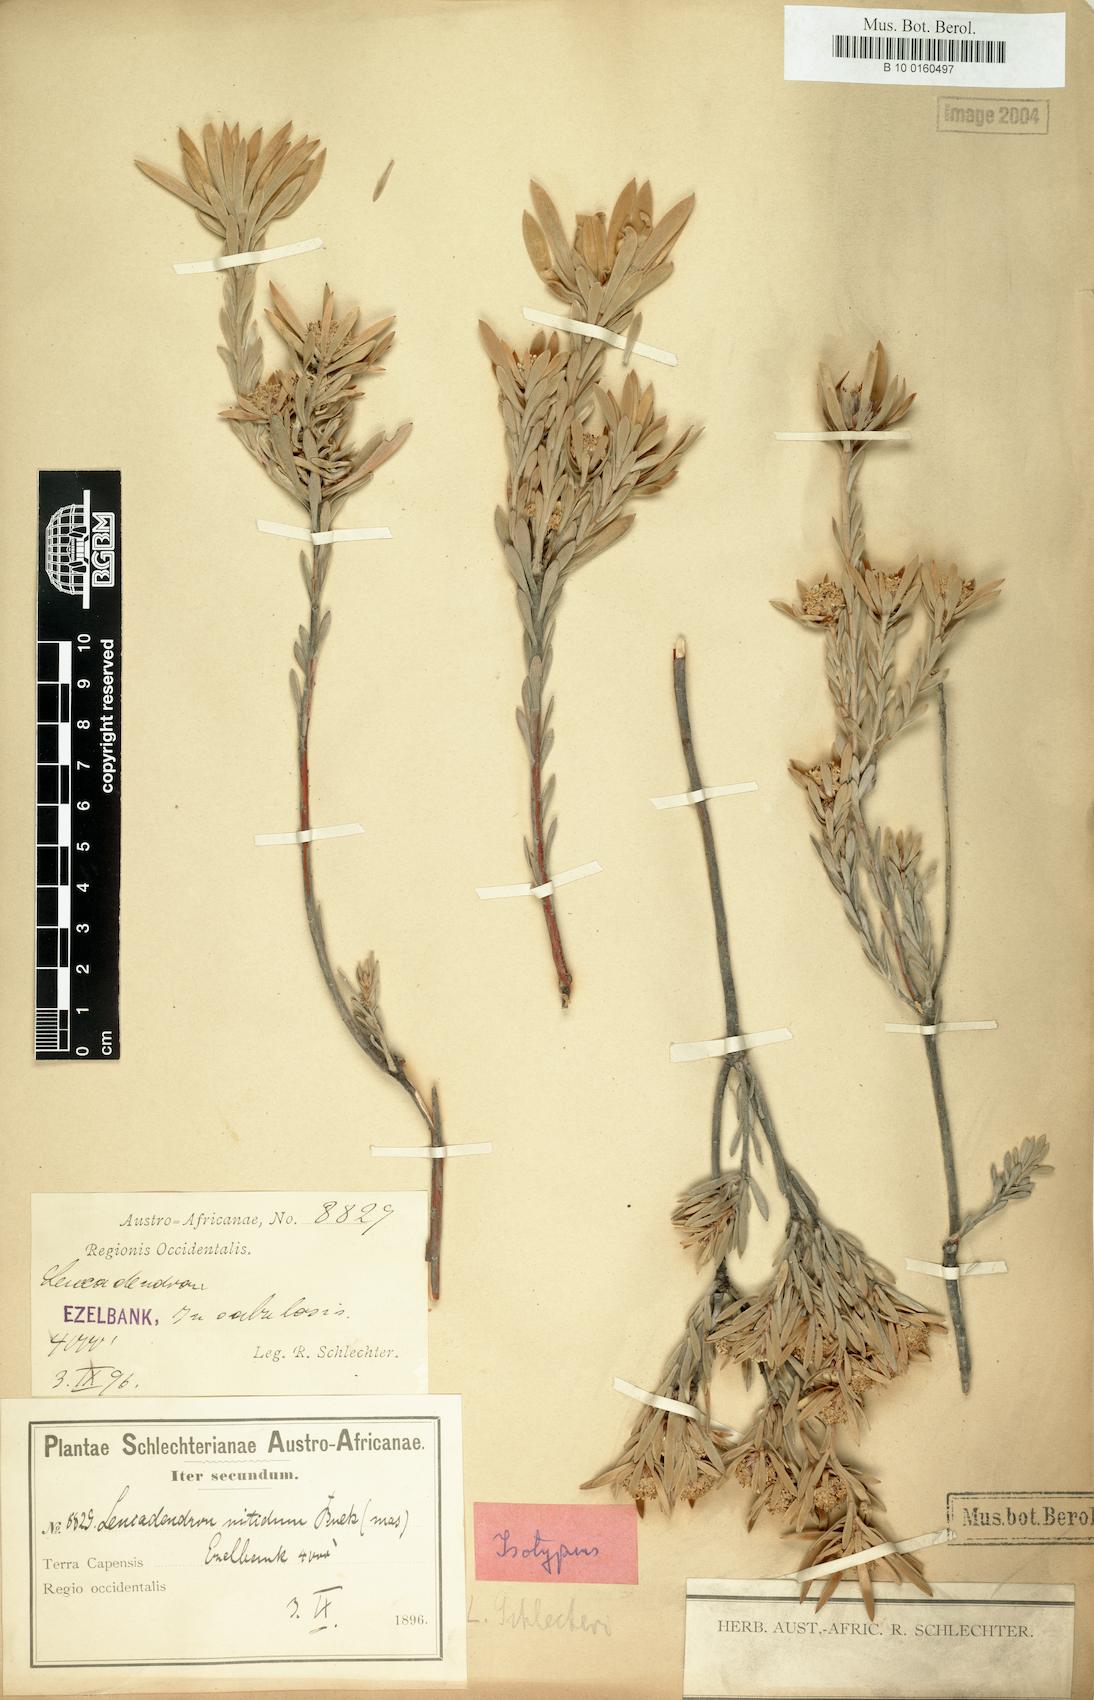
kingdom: Plantae
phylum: Tracheophyta
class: Magnoliopsida
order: Proteales
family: Proteaceae
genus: Leucadendron
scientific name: Leucadendron nitidum
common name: Bokkeveld conebush
